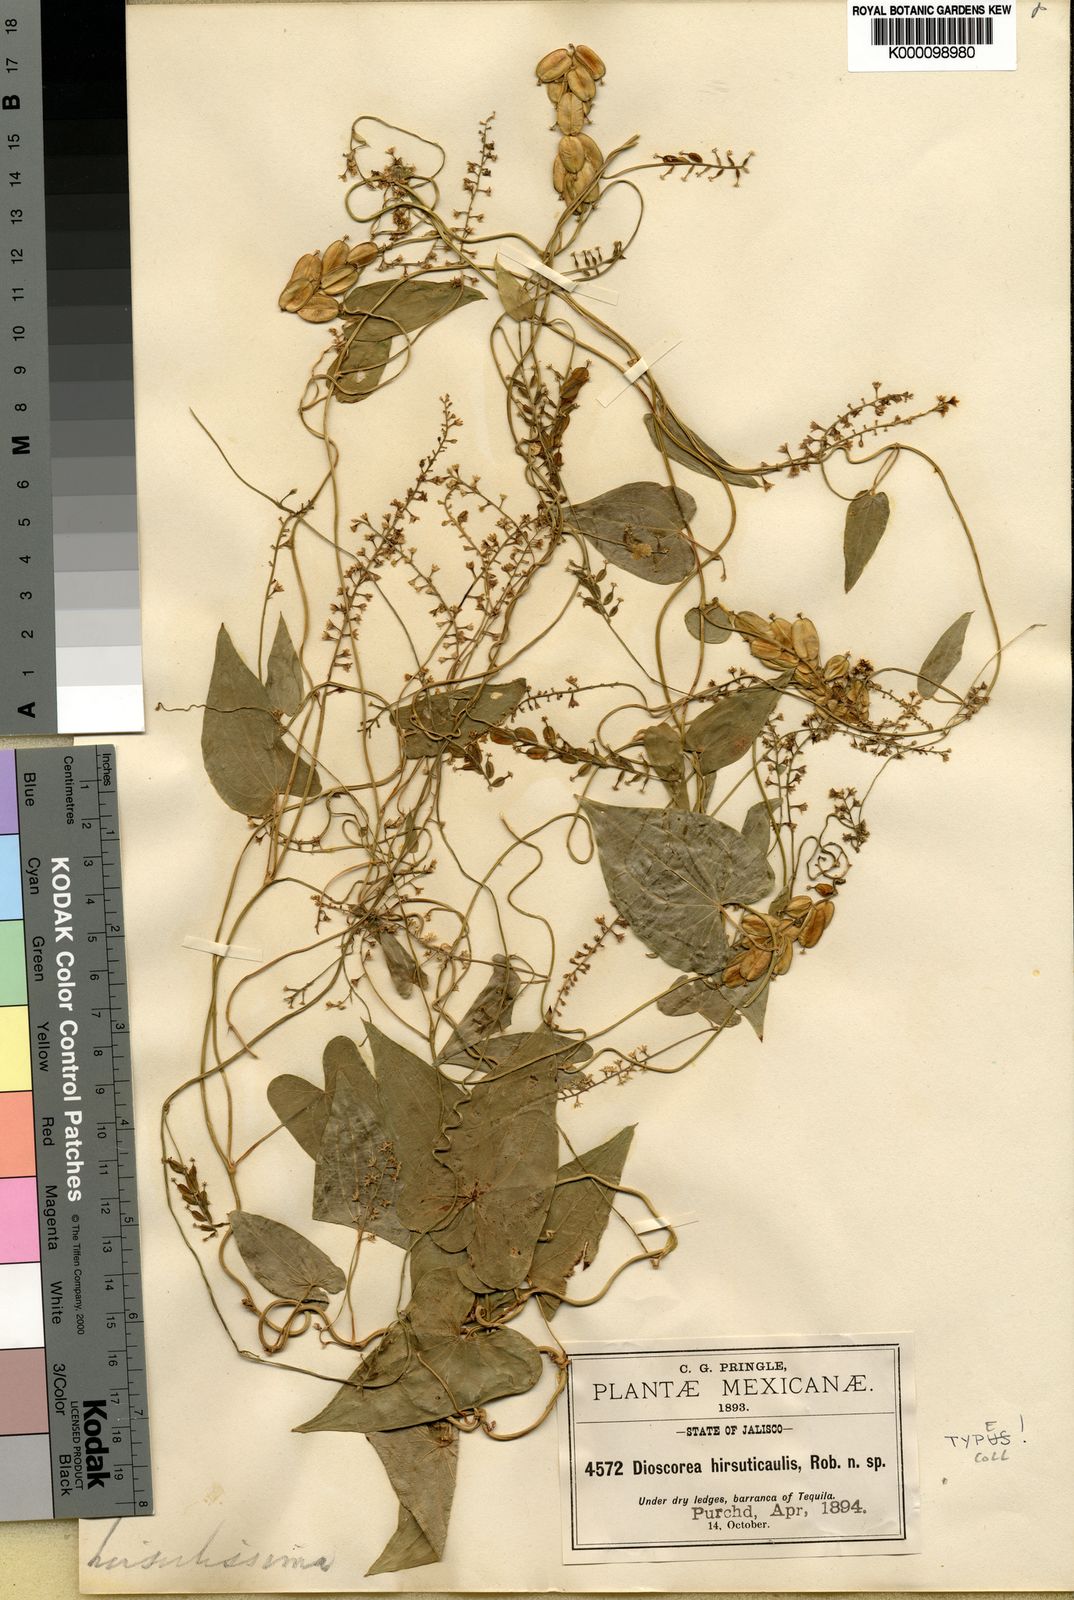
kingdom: Plantae
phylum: Tracheophyta
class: Liliopsida
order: Dioscoreales
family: Dioscoreaceae
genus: Dioscorea
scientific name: Dioscorea jaliscana
